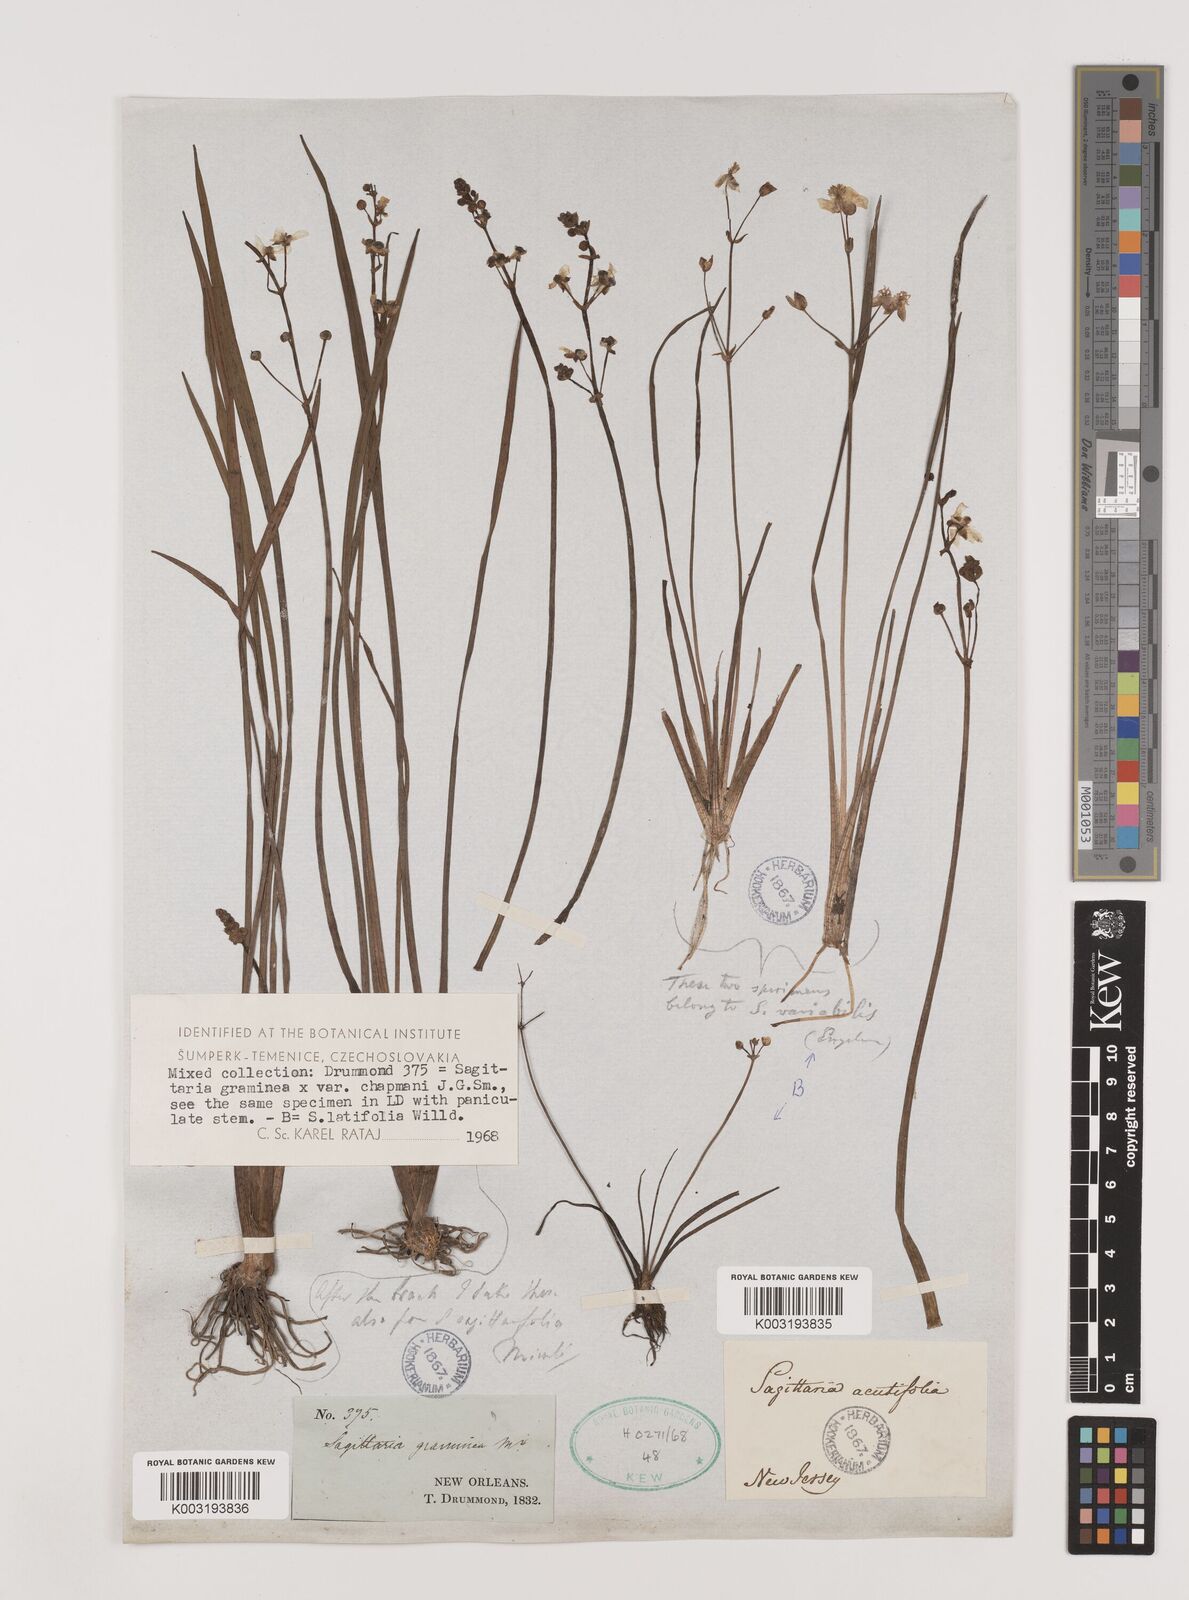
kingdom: Plantae
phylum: Tracheophyta
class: Liliopsida
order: Alismatales
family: Alismataceae
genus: Sagittaria
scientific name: Sagittaria graminea
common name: Grass-leaved arrowhead
